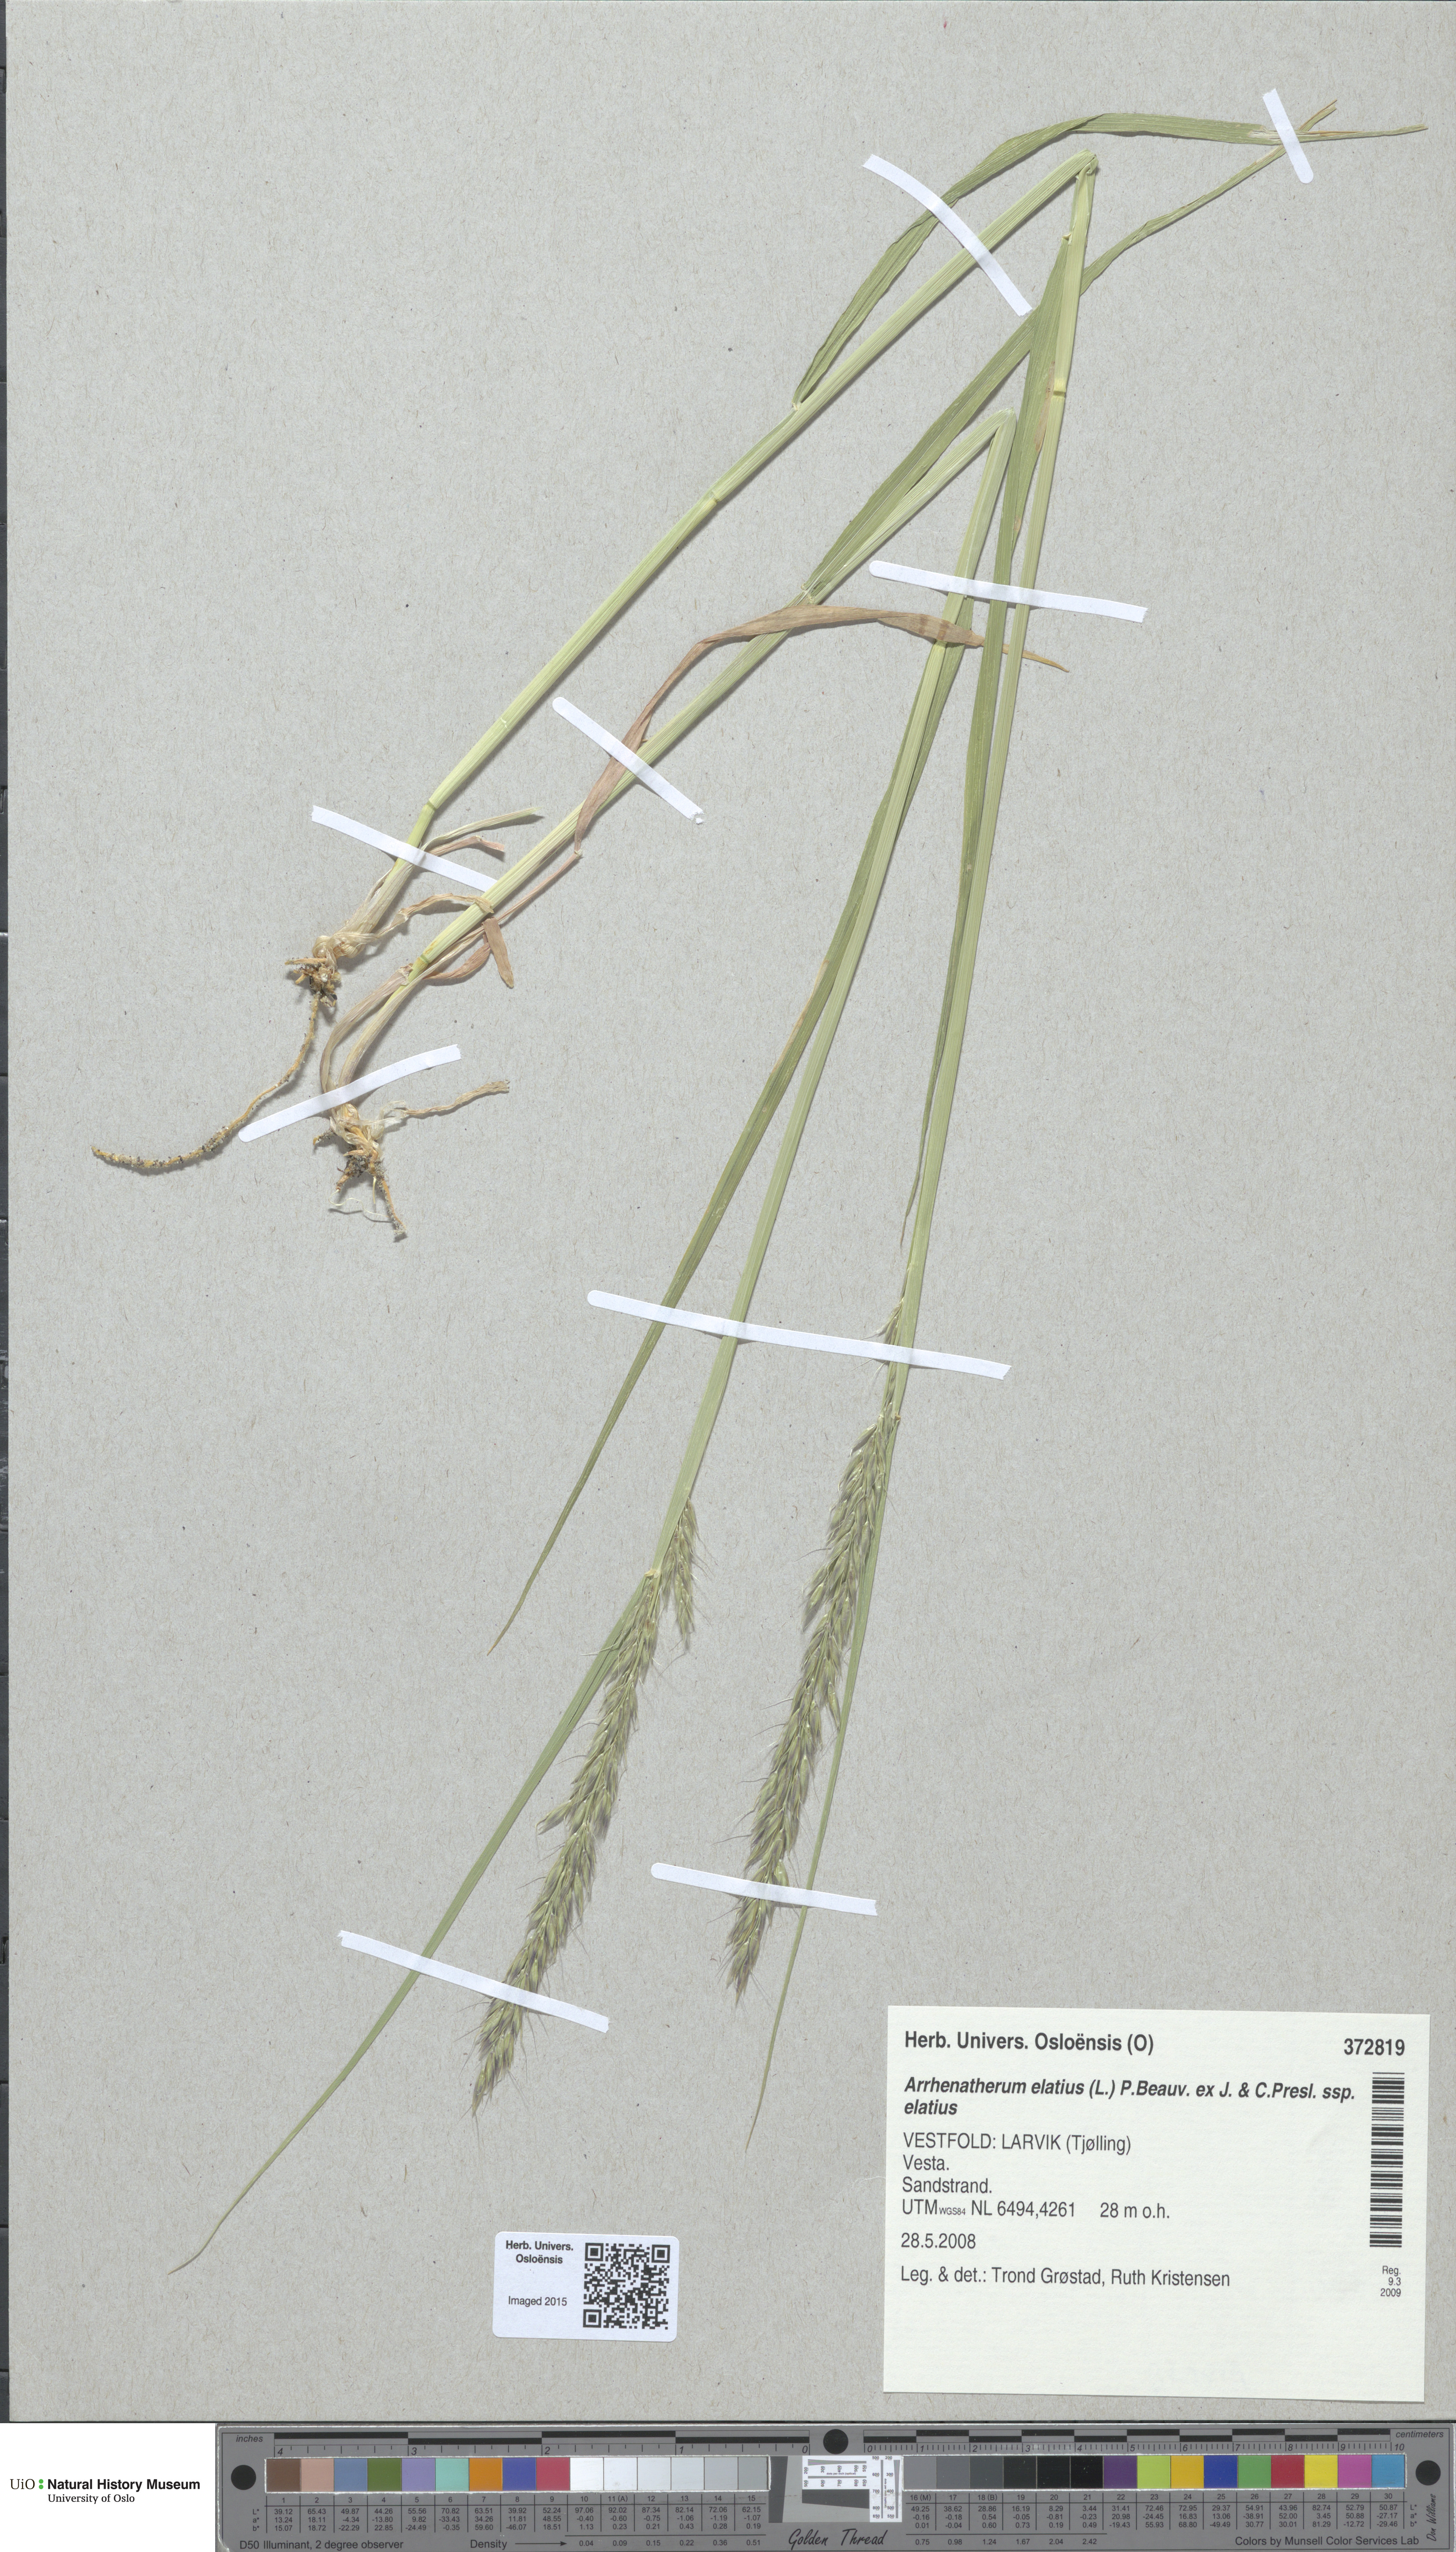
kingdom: Plantae
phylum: Tracheophyta
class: Liliopsida
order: Poales
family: Poaceae
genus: Arrhenatherum
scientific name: Arrhenatherum elatius
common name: Tall oatgrass
